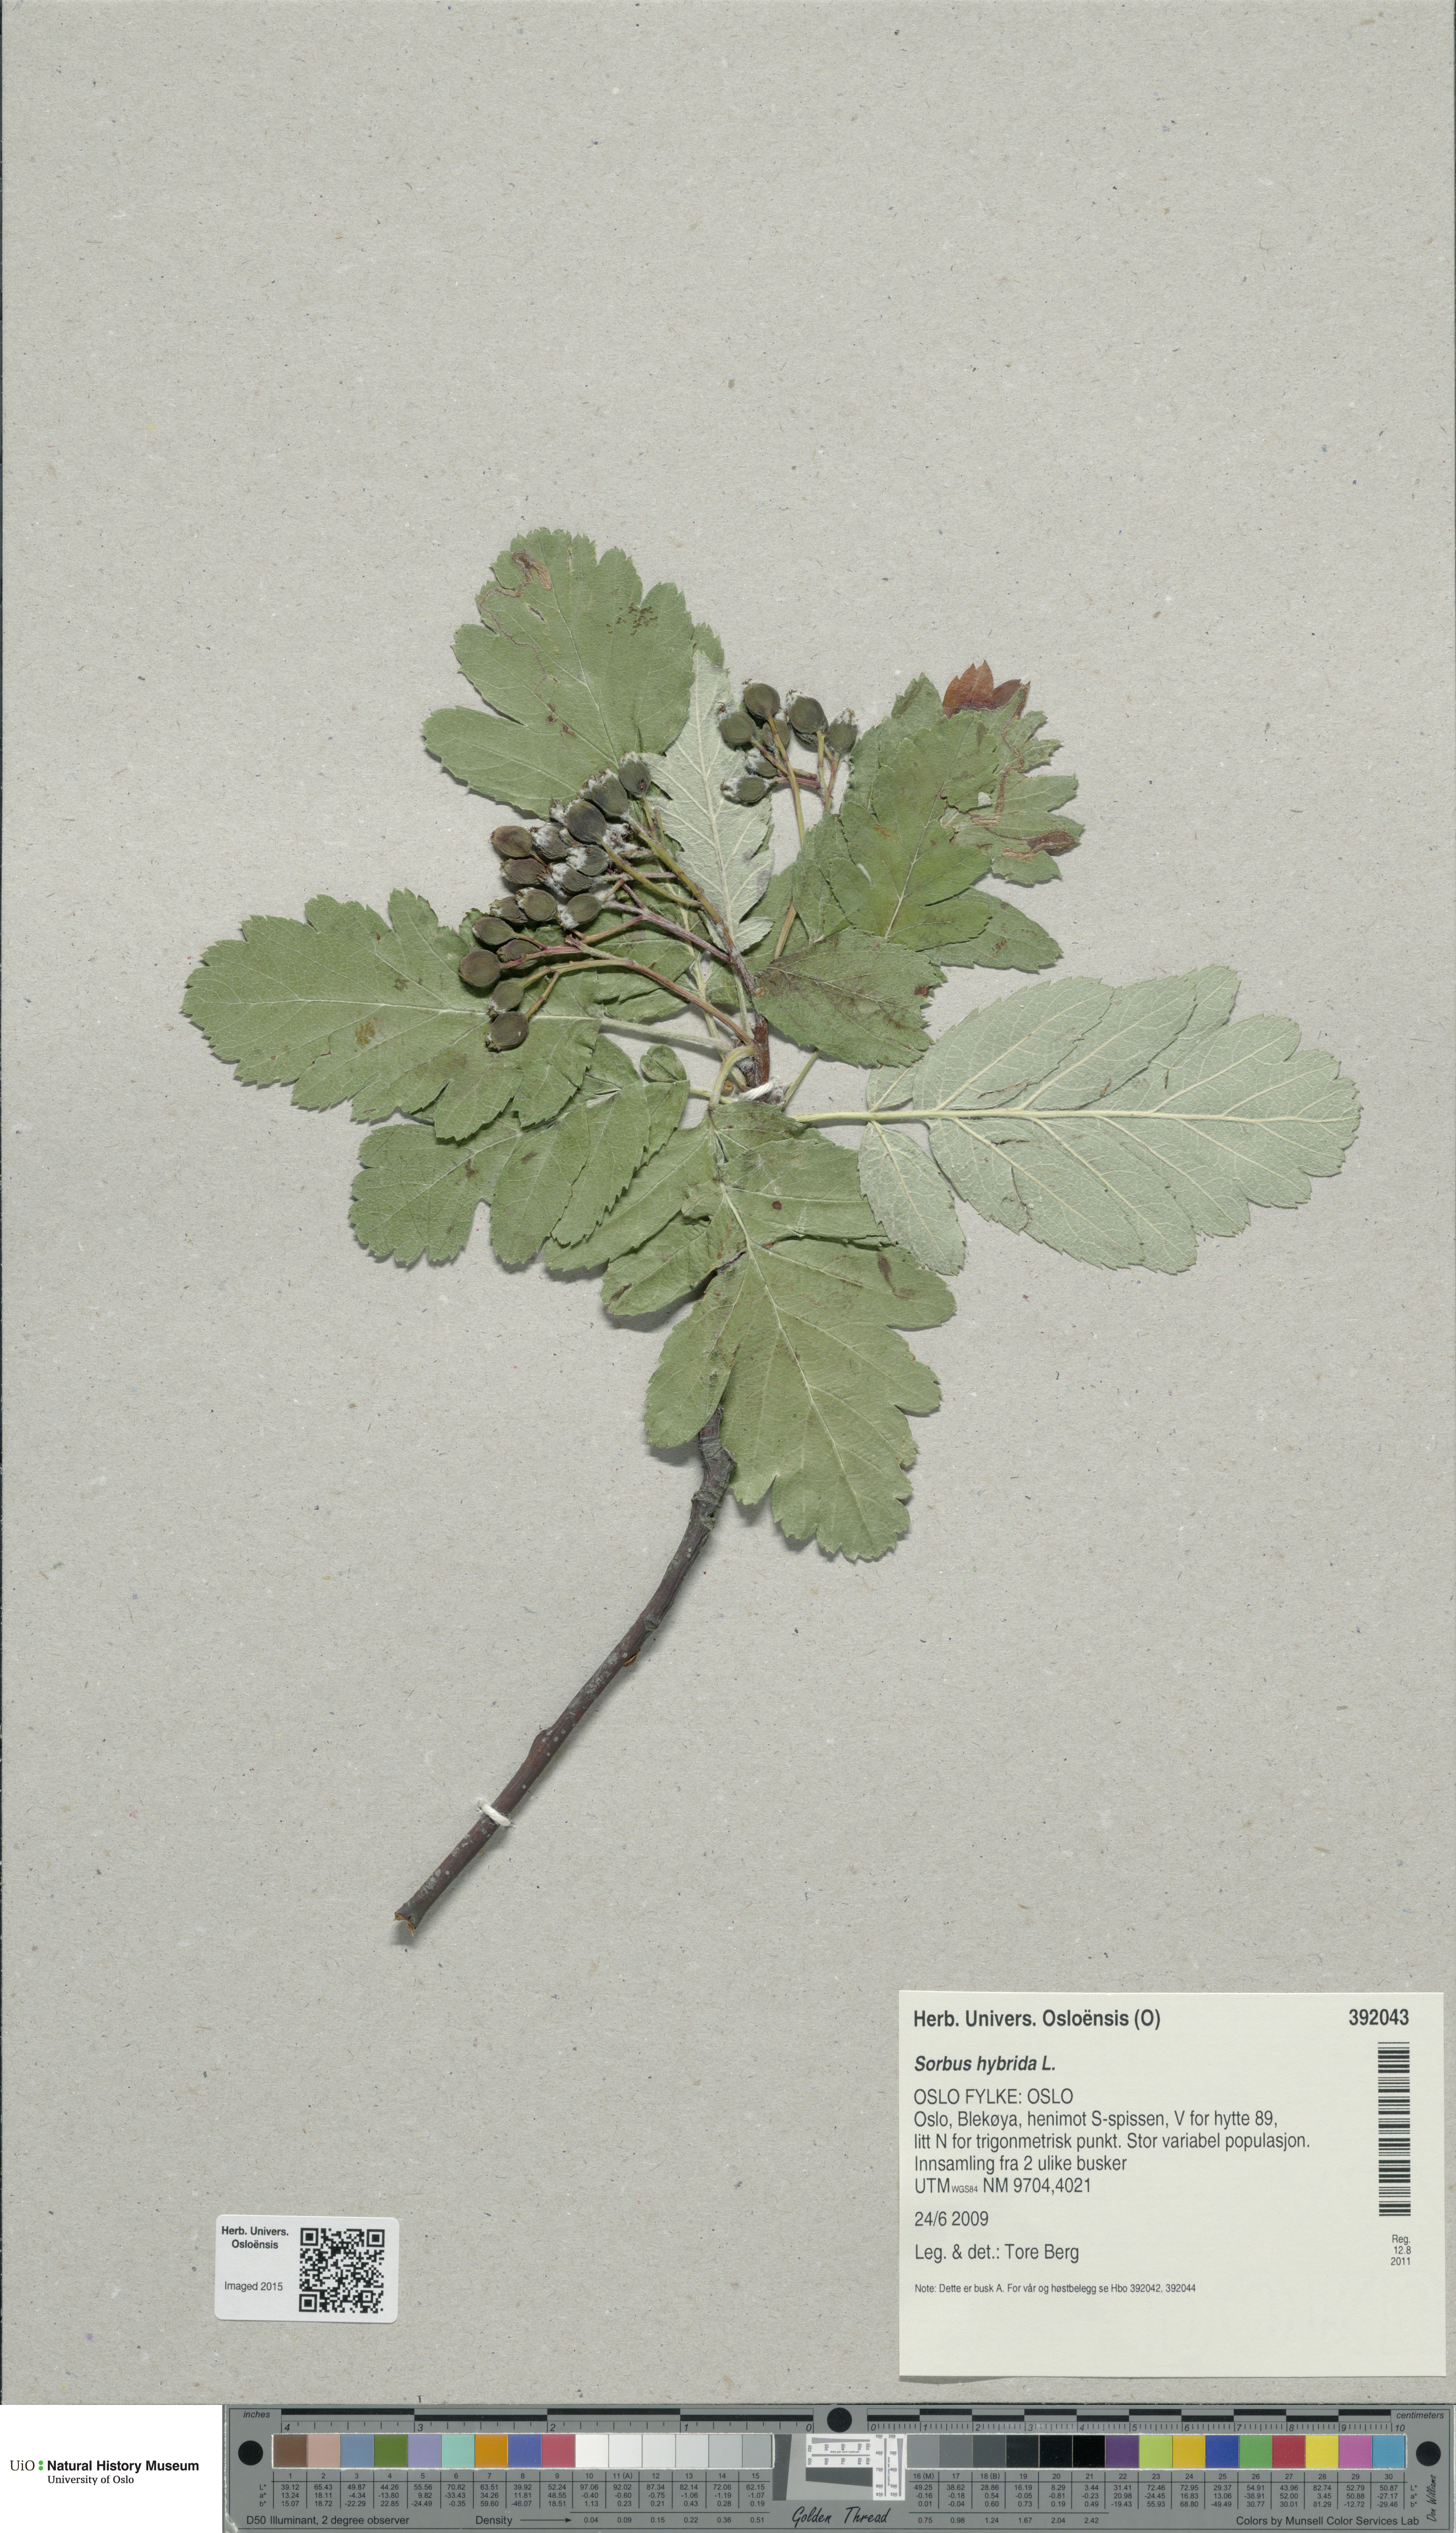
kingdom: Plantae
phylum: Tracheophyta
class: Magnoliopsida
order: Rosales
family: Rosaceae
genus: Hedlundia
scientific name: Hedlundia hybrida
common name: Swedish service-tree
